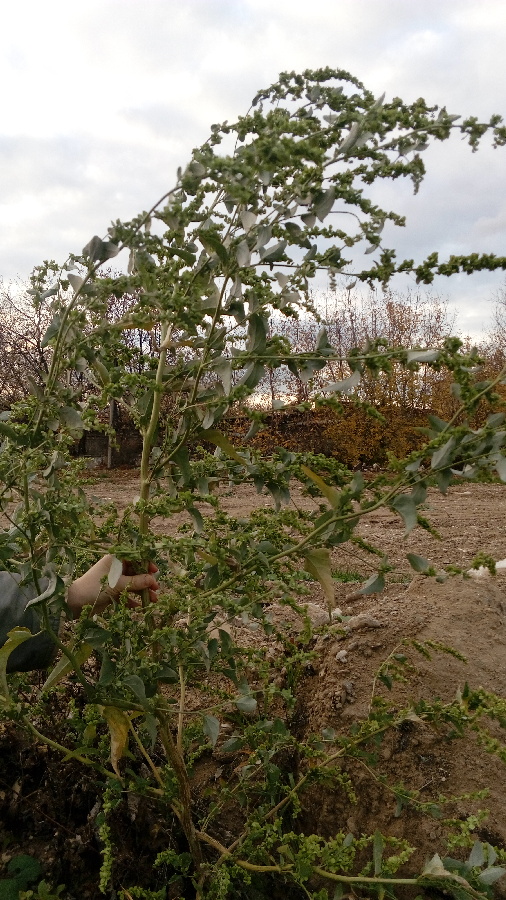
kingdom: Plantae
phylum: Tracheophyta
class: Magnoliopsida
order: Caryophyllales
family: Amaranthaceae
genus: Atriplex
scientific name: Atriplex sagittata
